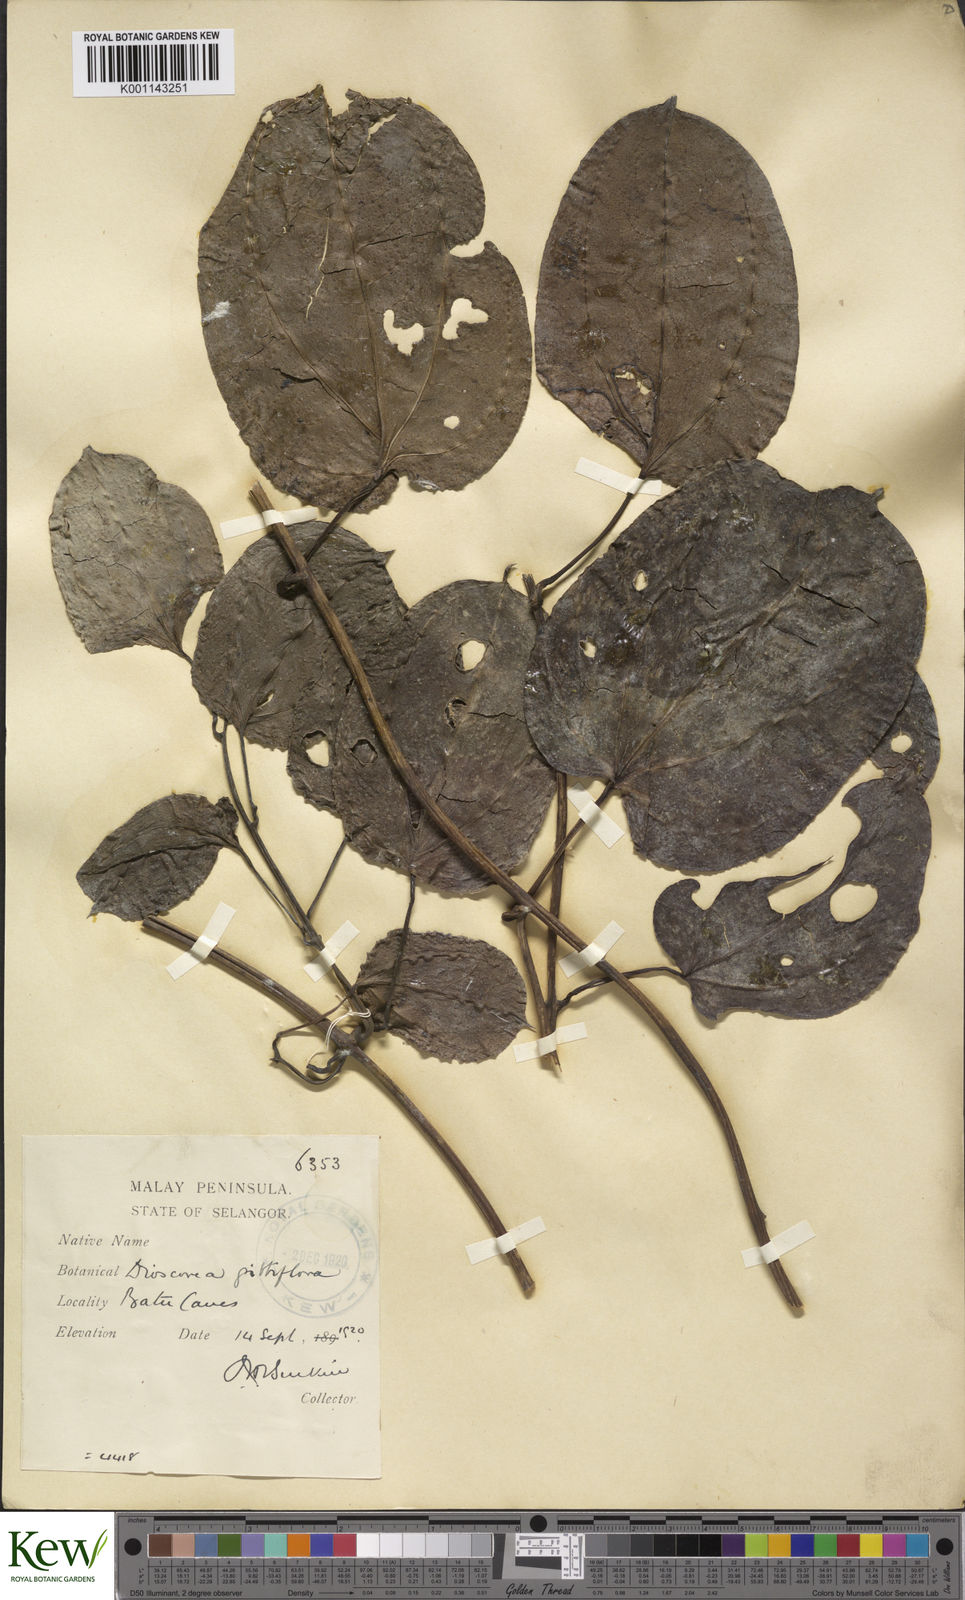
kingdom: Plantae
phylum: Tracheophyta
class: Liliopsida
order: Dioscoreales
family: Dioscoreaceae
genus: Dioscorea
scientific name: Dioscorea filiformis
